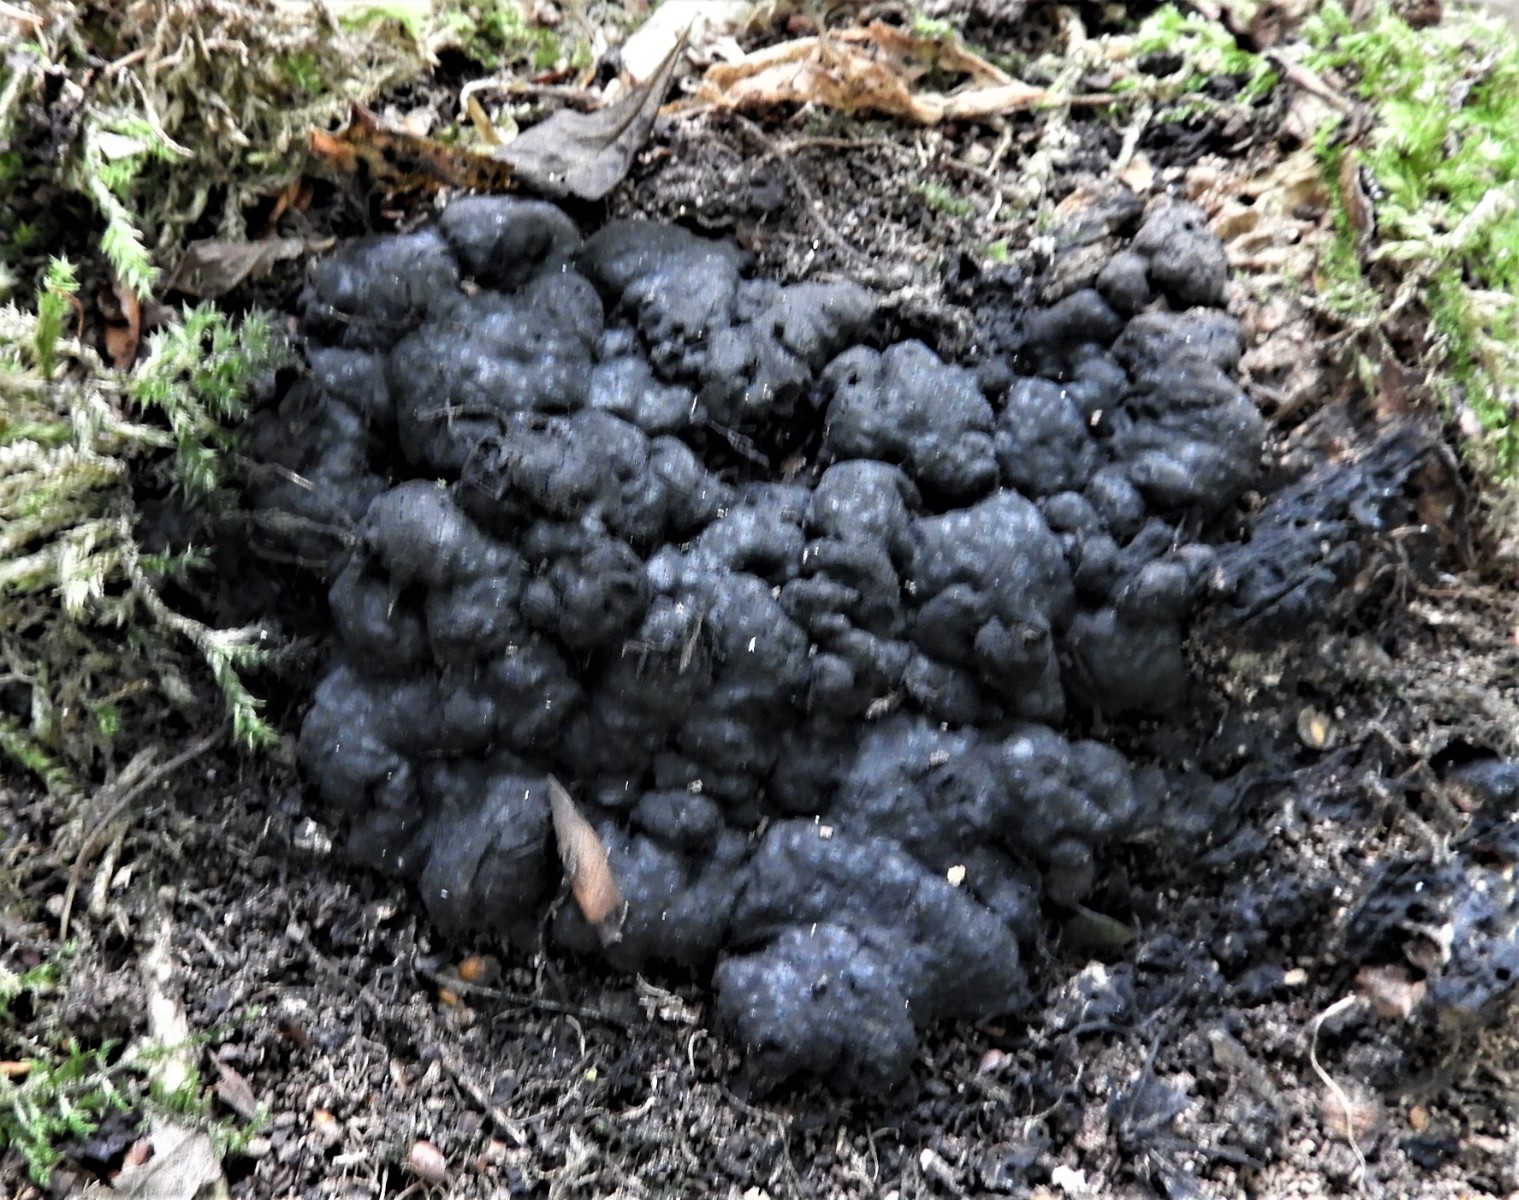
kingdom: Fungi
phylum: Ascomycota
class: Sordariomycetes
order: Xylariales
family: Xylariaceae
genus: Kretzschmaria
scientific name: Kretzschmaria deusta
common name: stor kulsvamp
